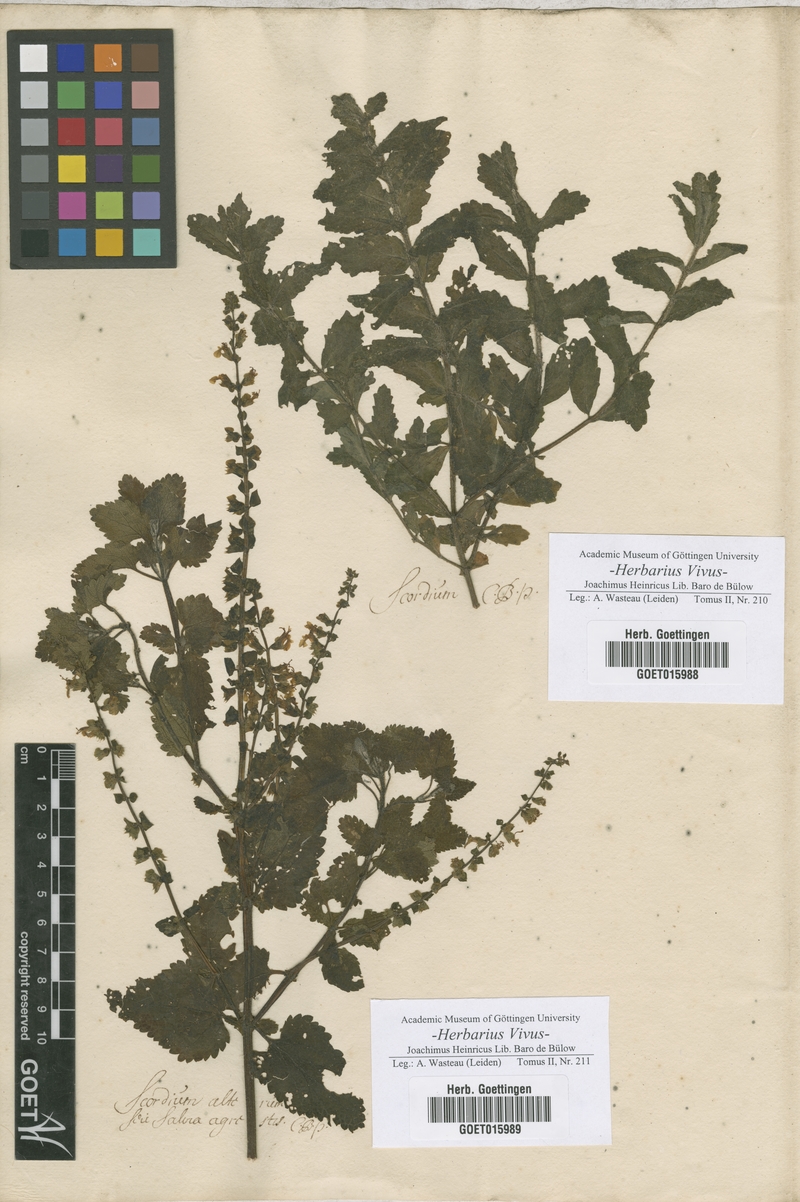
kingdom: Plantae
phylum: Tracheophyta
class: Magnoliopsida
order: Lamiales
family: Lamiaceae
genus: Scordium
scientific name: Scordium
